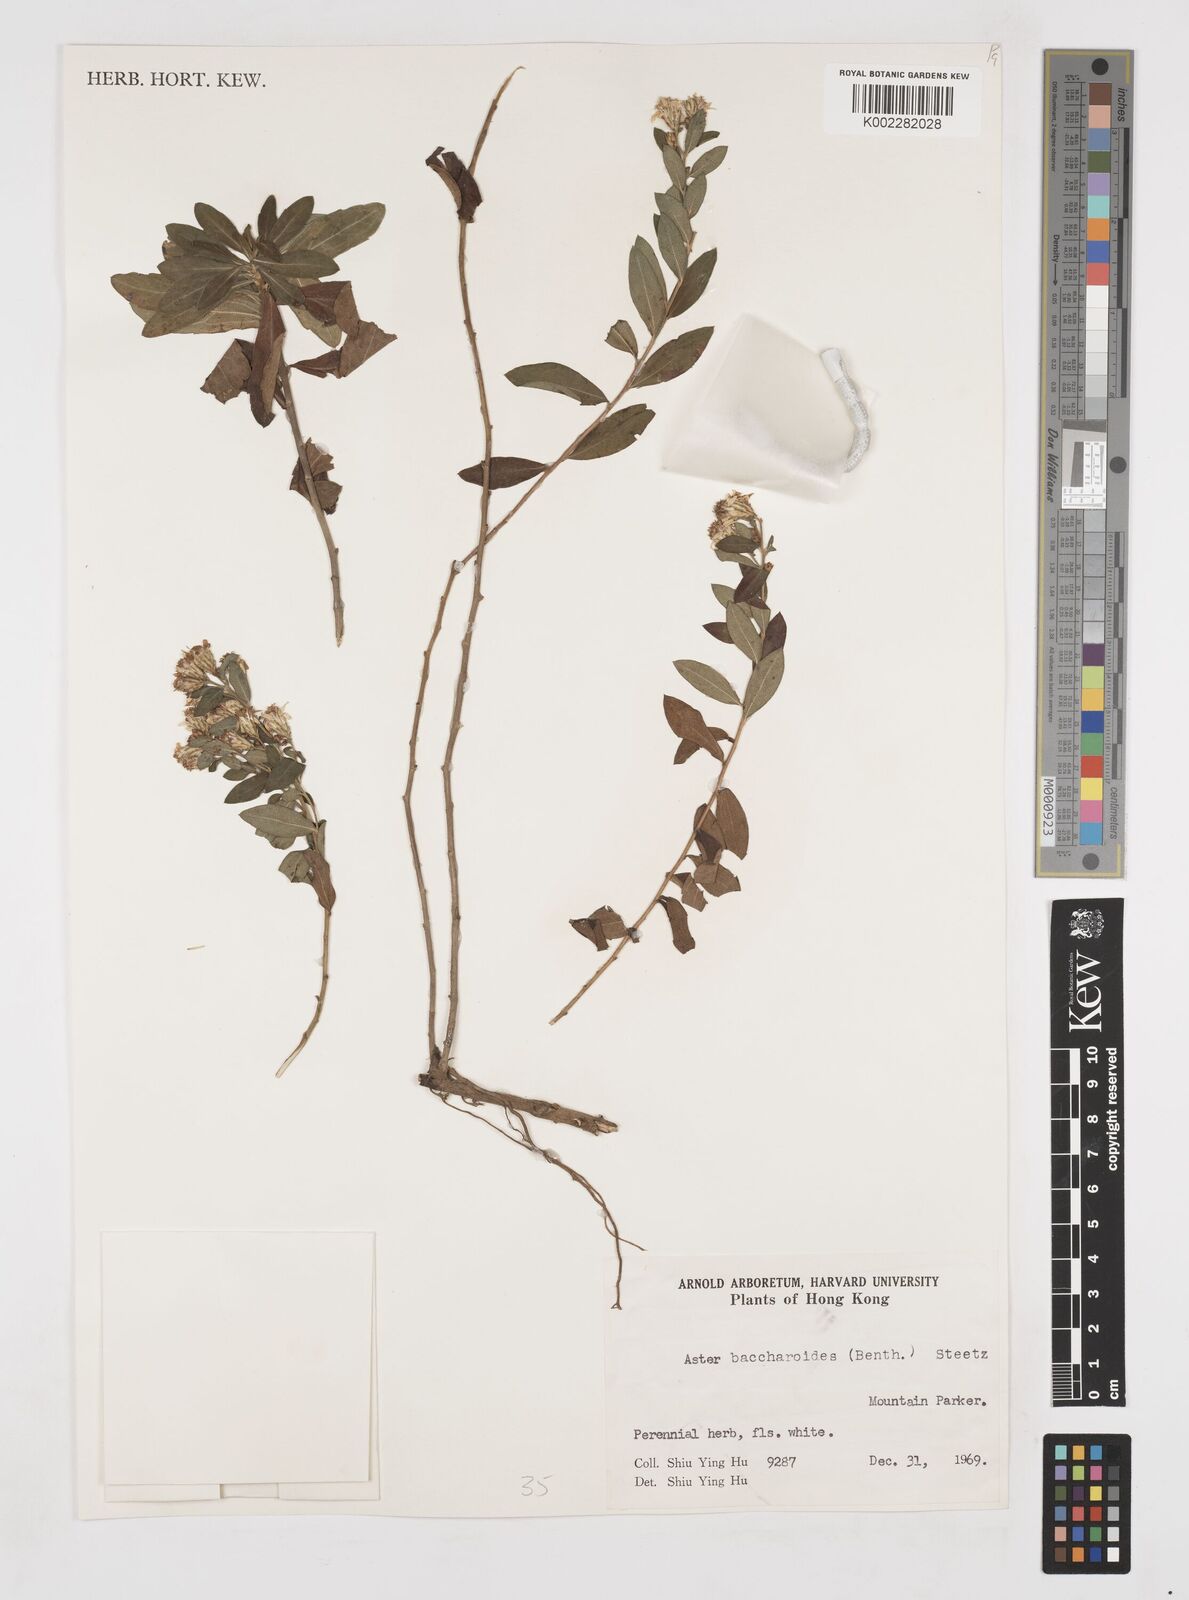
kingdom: Plantae
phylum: Tracheophyta
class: Magnoliopsida
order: Asterales
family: Asteraceae
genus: Aster
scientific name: Aster baccharoides
